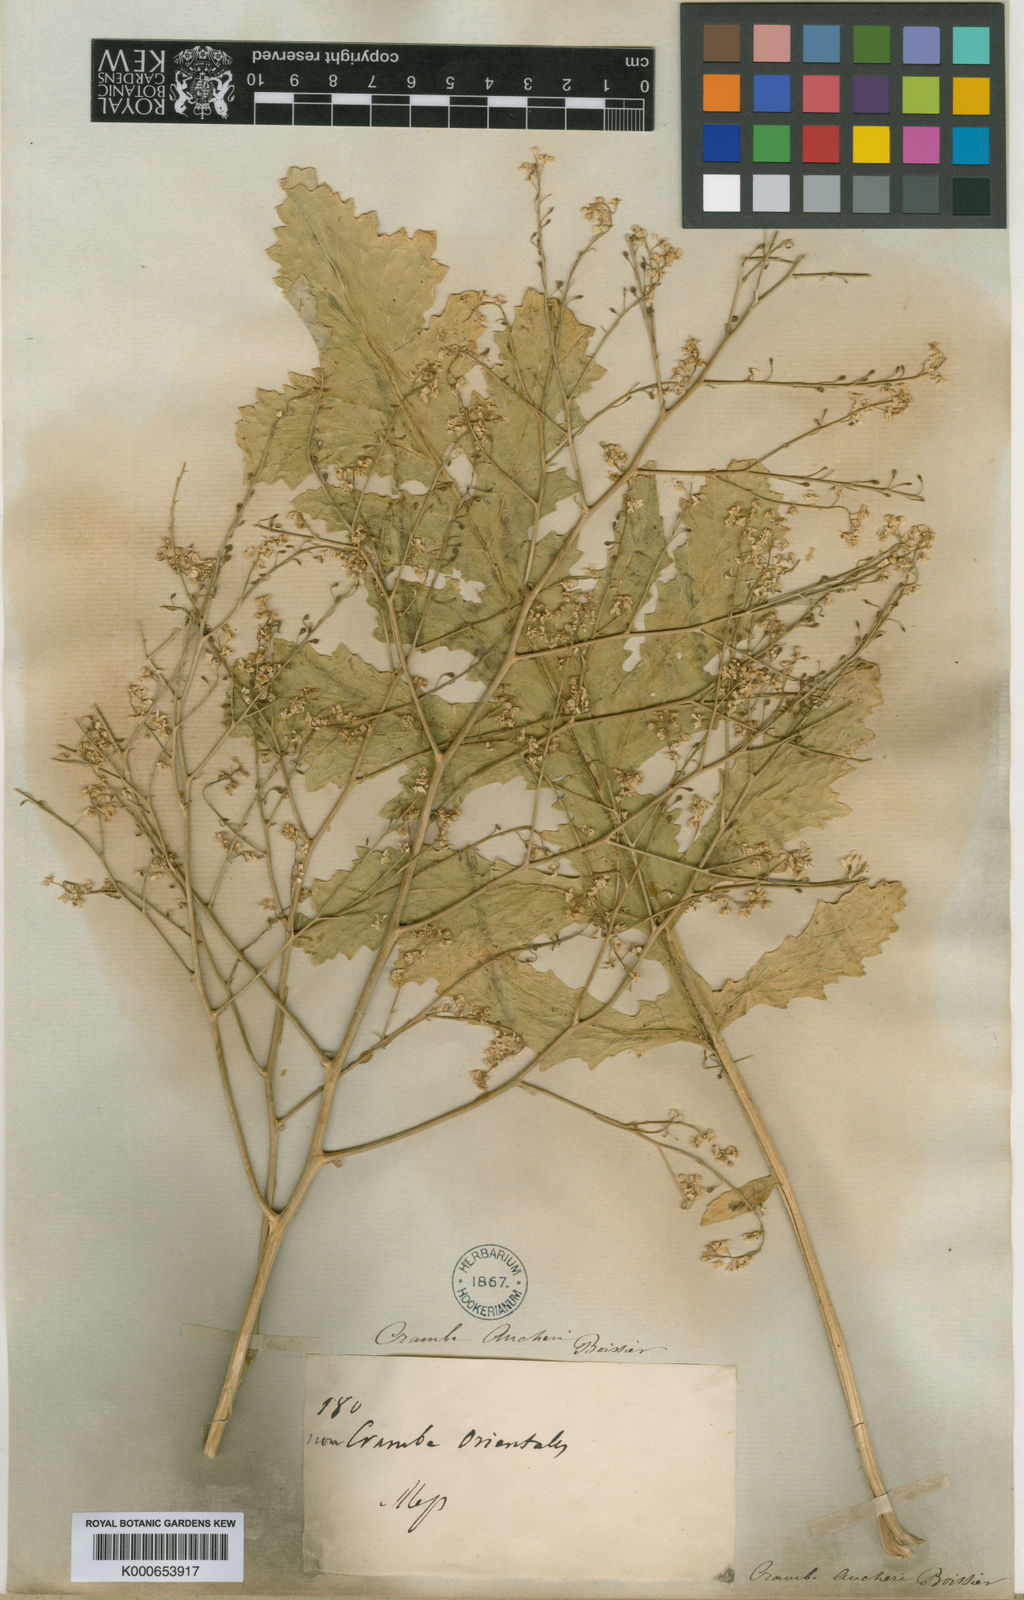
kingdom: Plantae
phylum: Tracheophyta
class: Magnoliopsida
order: Brassicales
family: Brassicaceae
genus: Crambe
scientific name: Crambe orientalis
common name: Oriental sea-kale
